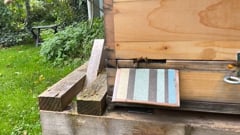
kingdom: Animalia
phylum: Arthropoda
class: Insecta
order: Hymenoptera
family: Vespidae
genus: Vespa
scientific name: Vespa velutina
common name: Asian hornet
